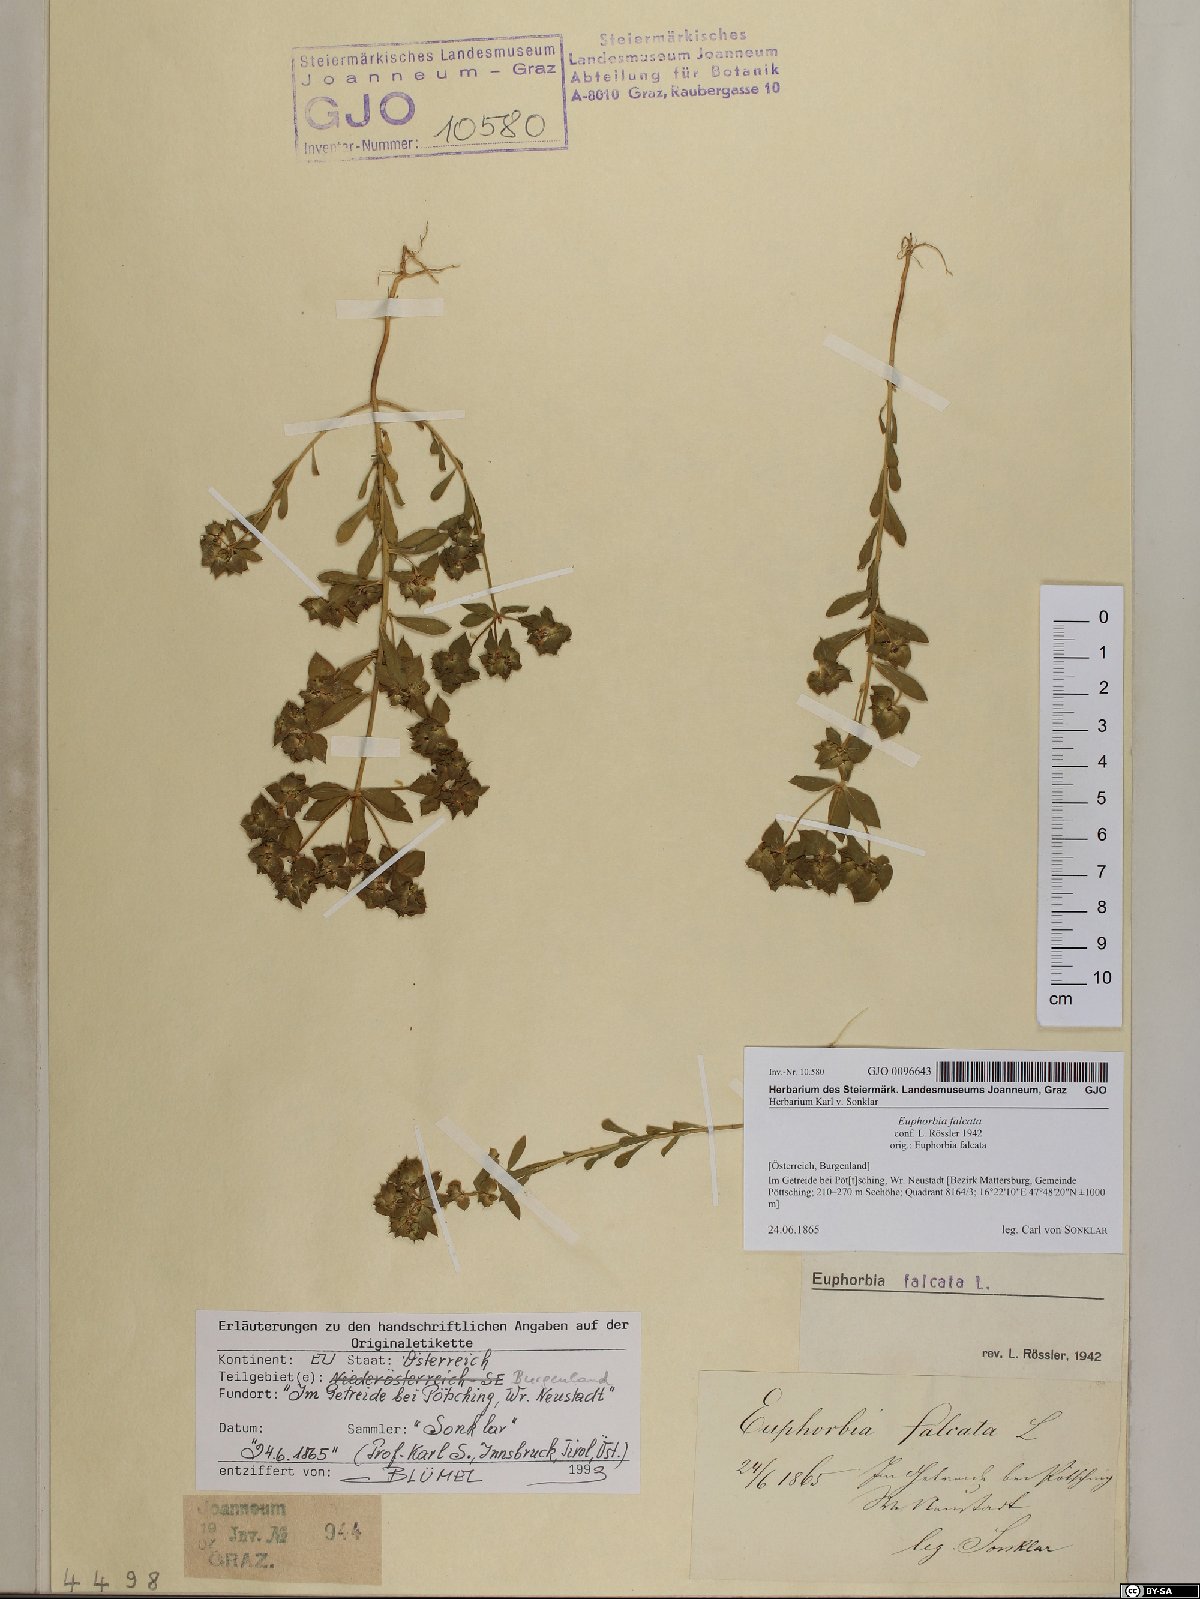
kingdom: Plantae
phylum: Tracheophyta
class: Magnoliopsida
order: Malpighiales
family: Euphorbiaceae
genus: Euphorbia
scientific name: Euphorbia falcata
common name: Sickle spurge
